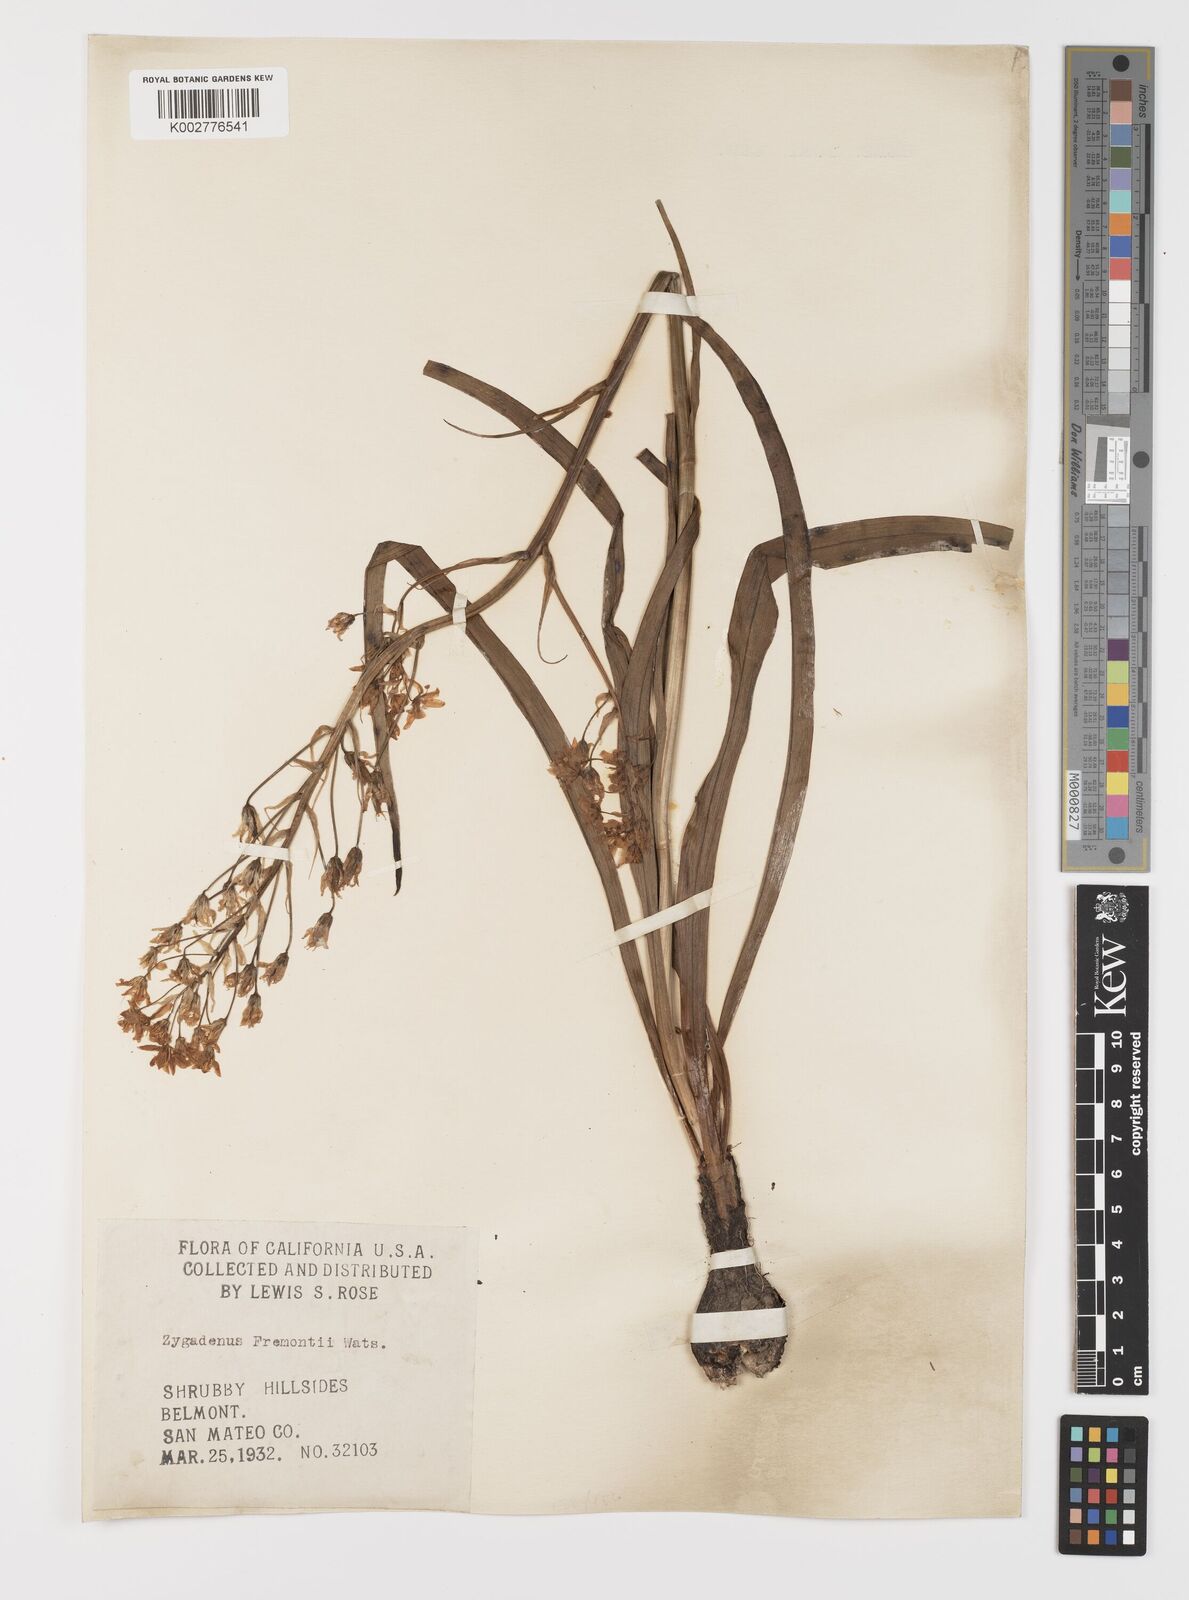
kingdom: Plantae
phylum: Tracheophyta
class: Liliopsida
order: Liliales
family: Melanthiaceae
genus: Toxicoscordion
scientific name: Toxicoscordion fremontii
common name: Fremont's death camas
